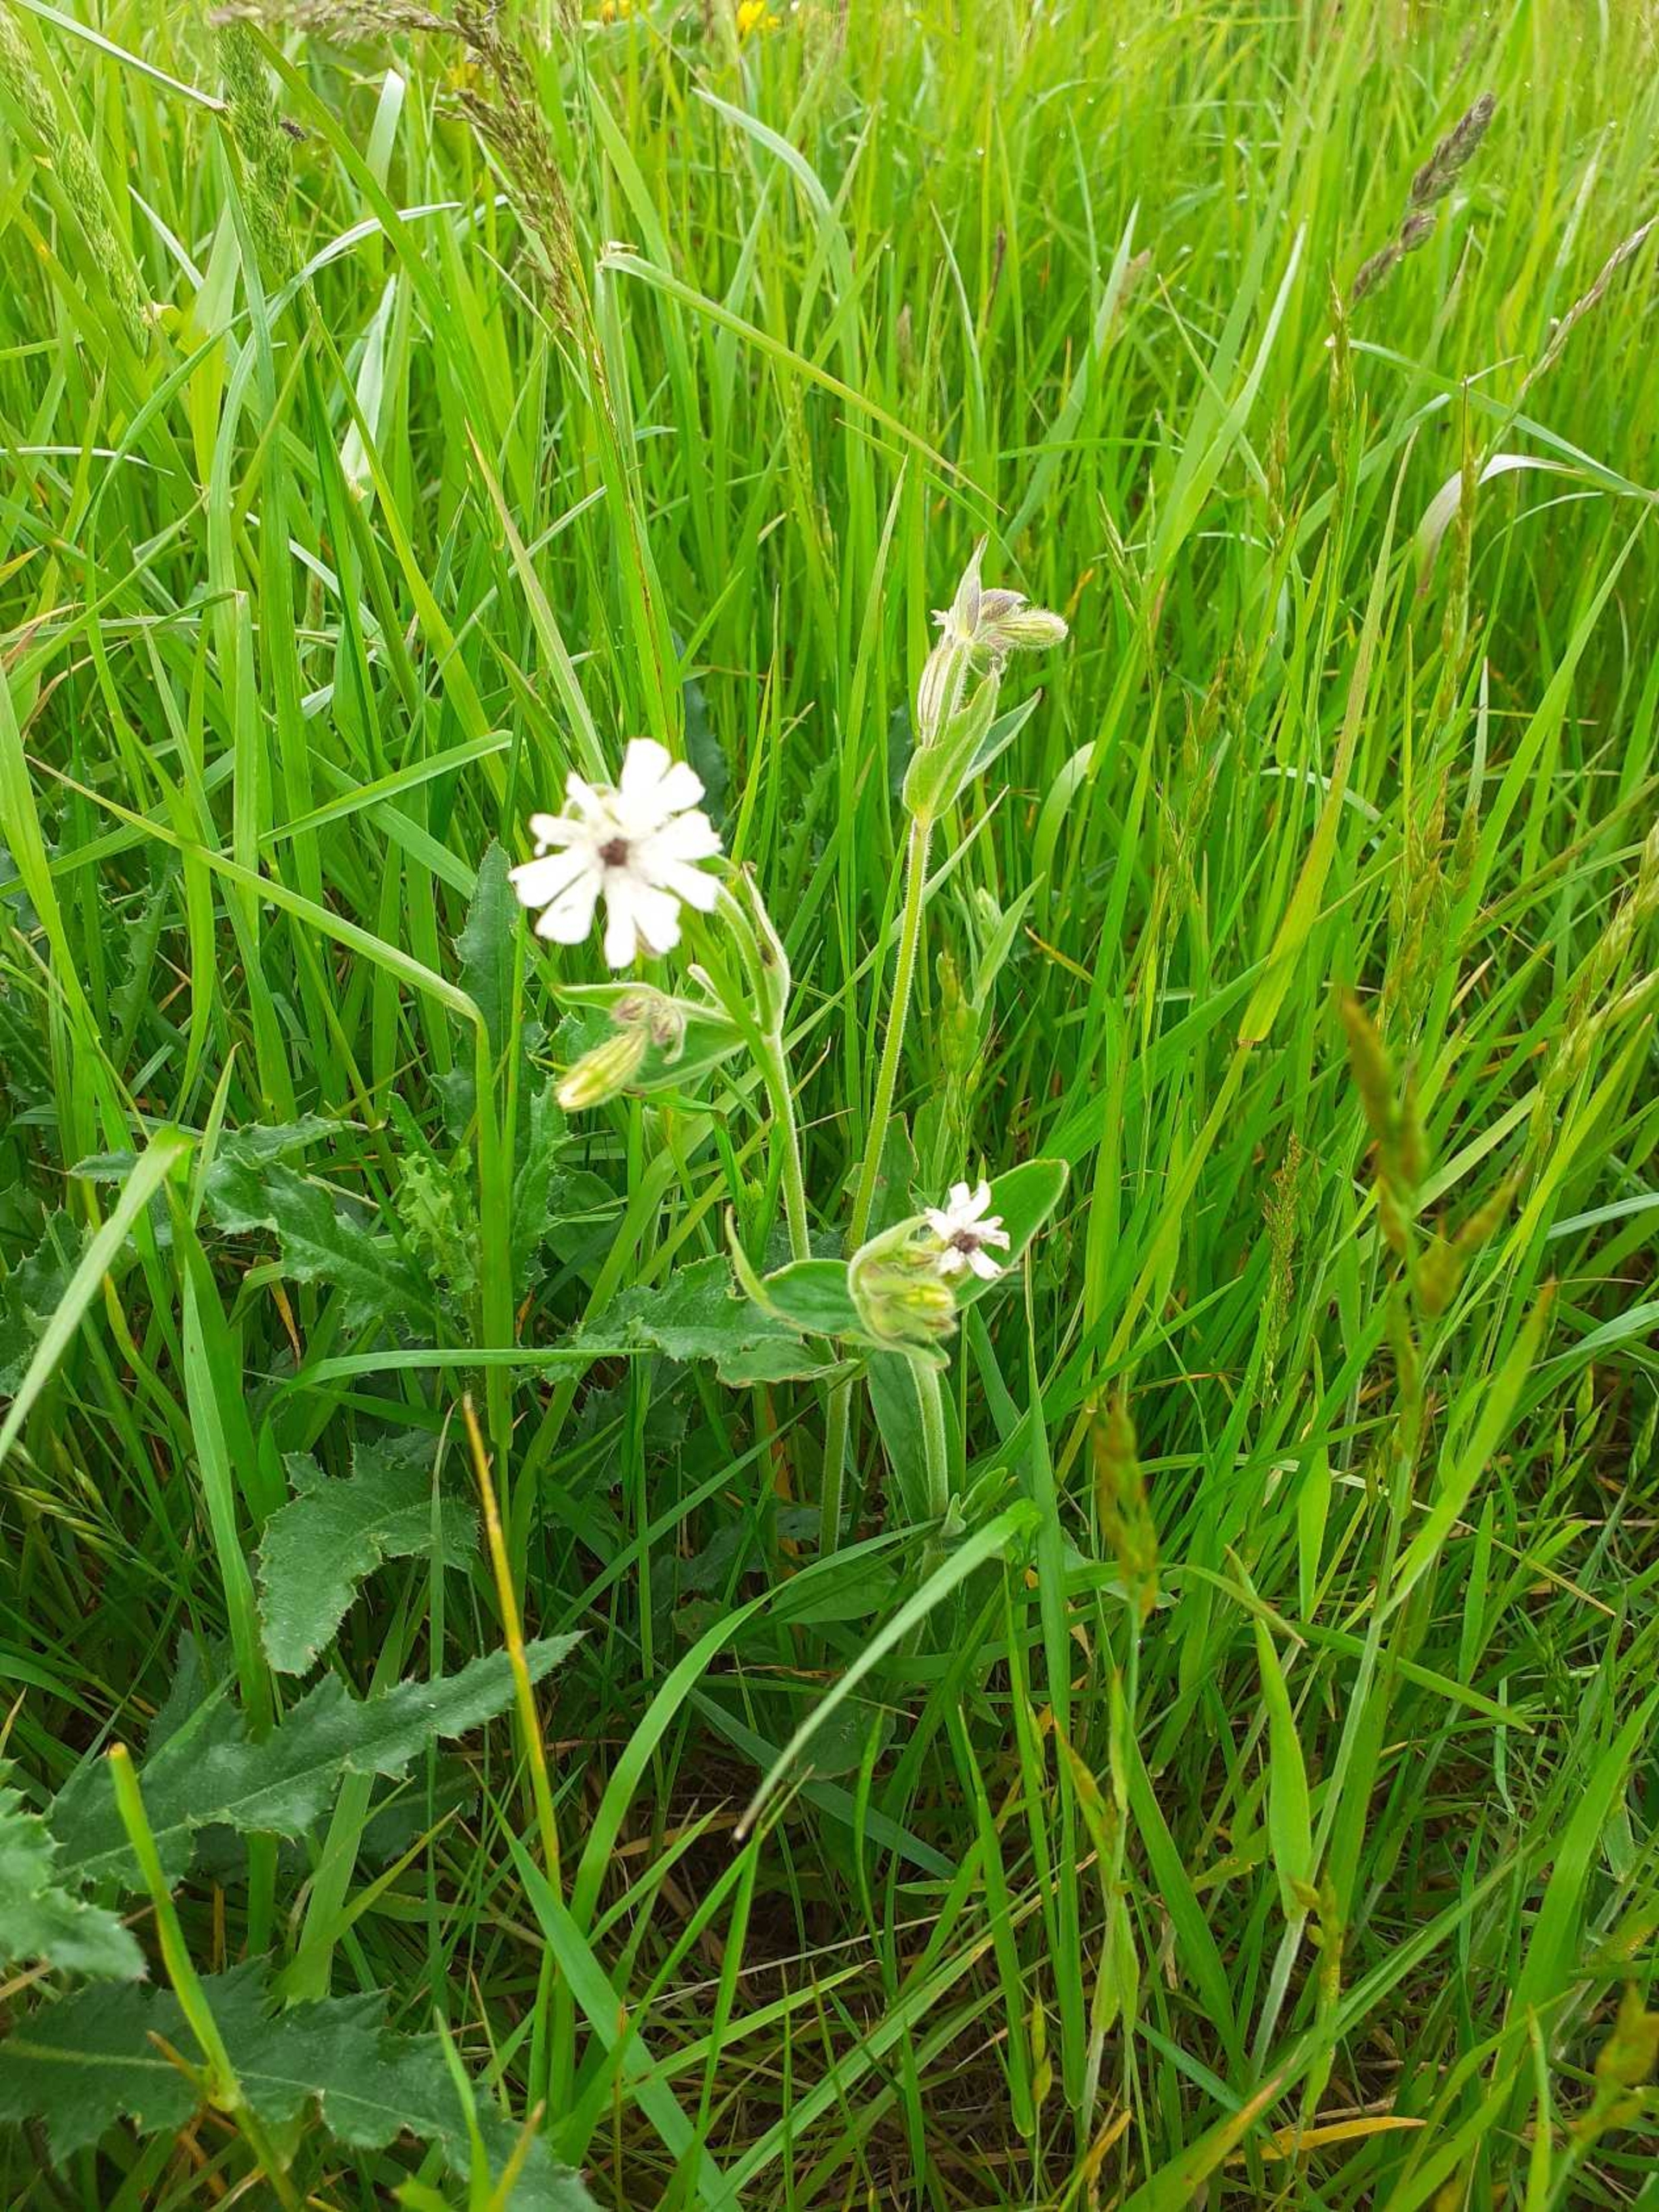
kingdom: Plantae
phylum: Tracheophyta
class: Magnoliopsida
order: Caryophyllales
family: Caryophyllaceae
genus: Silene
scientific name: Silene latifolia
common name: Aftenpragtstjerne
